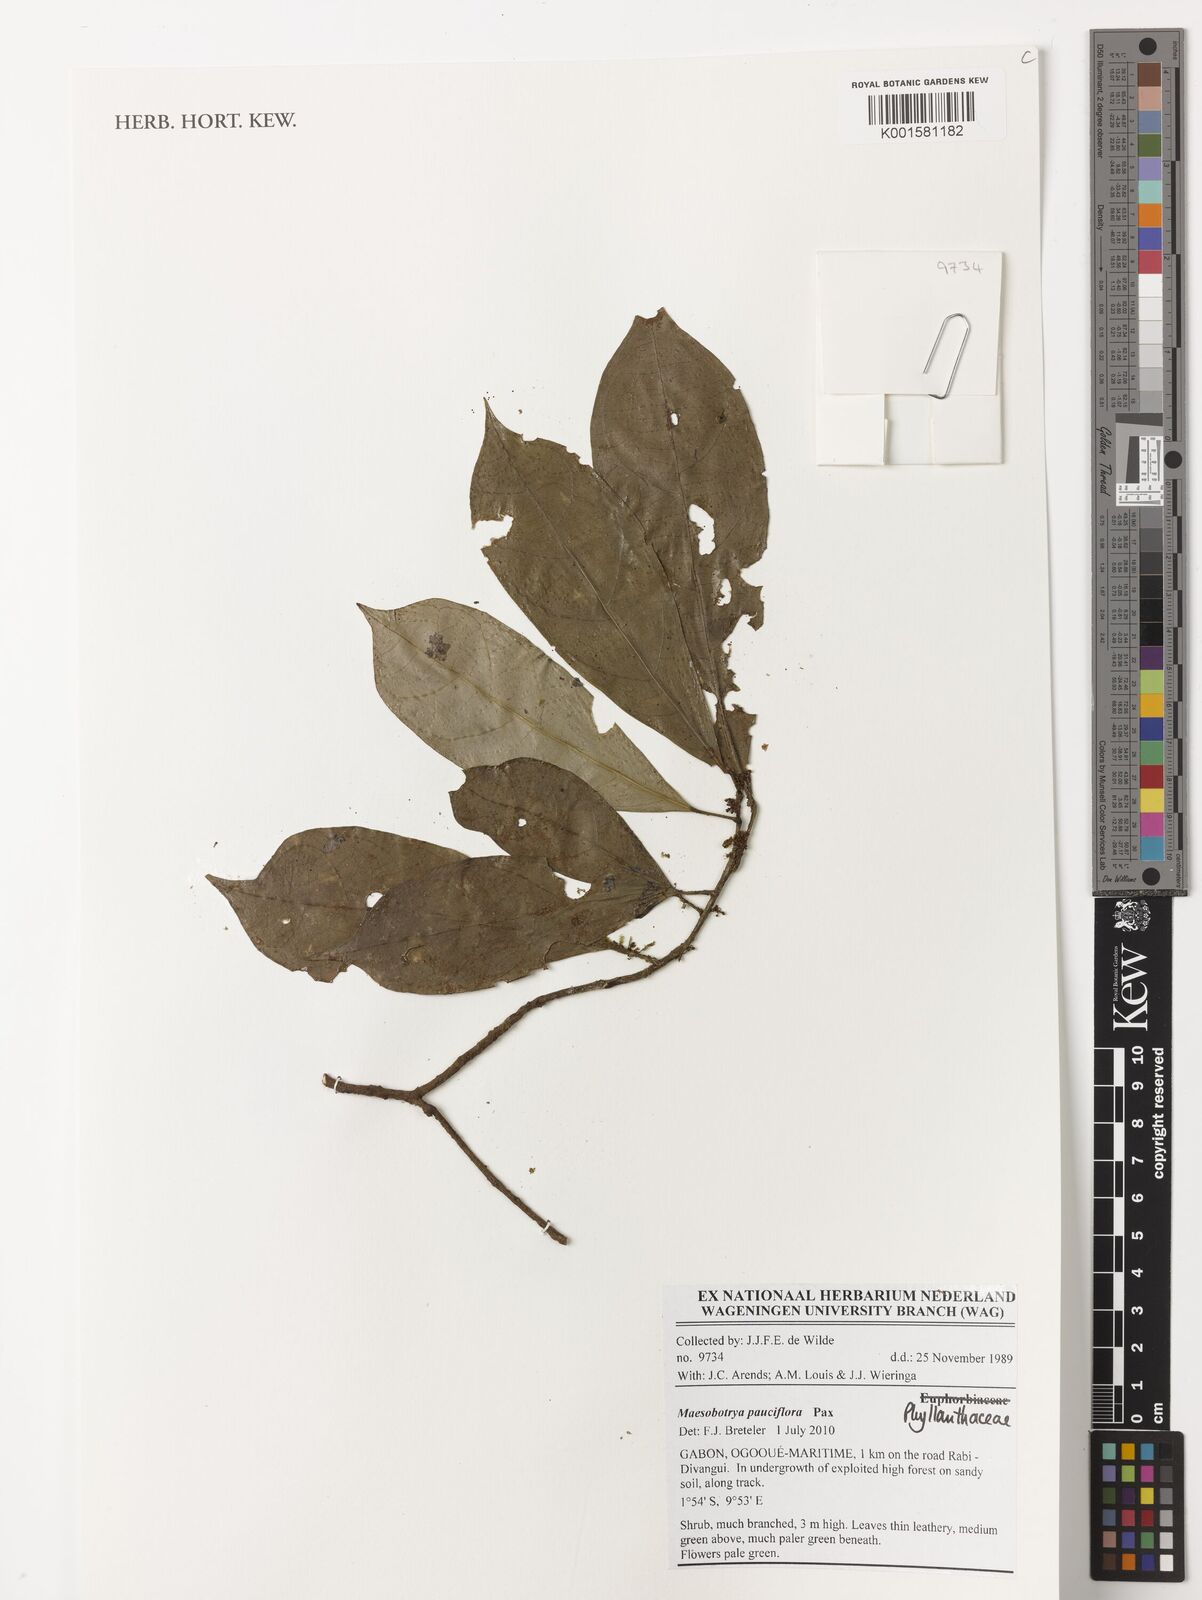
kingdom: Plantae
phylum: Tracheophyta
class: Magnoliopsida
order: Malpighiales
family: Phyllanthaceae
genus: Maesobotrya
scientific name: Maesobotrya pauciflora
